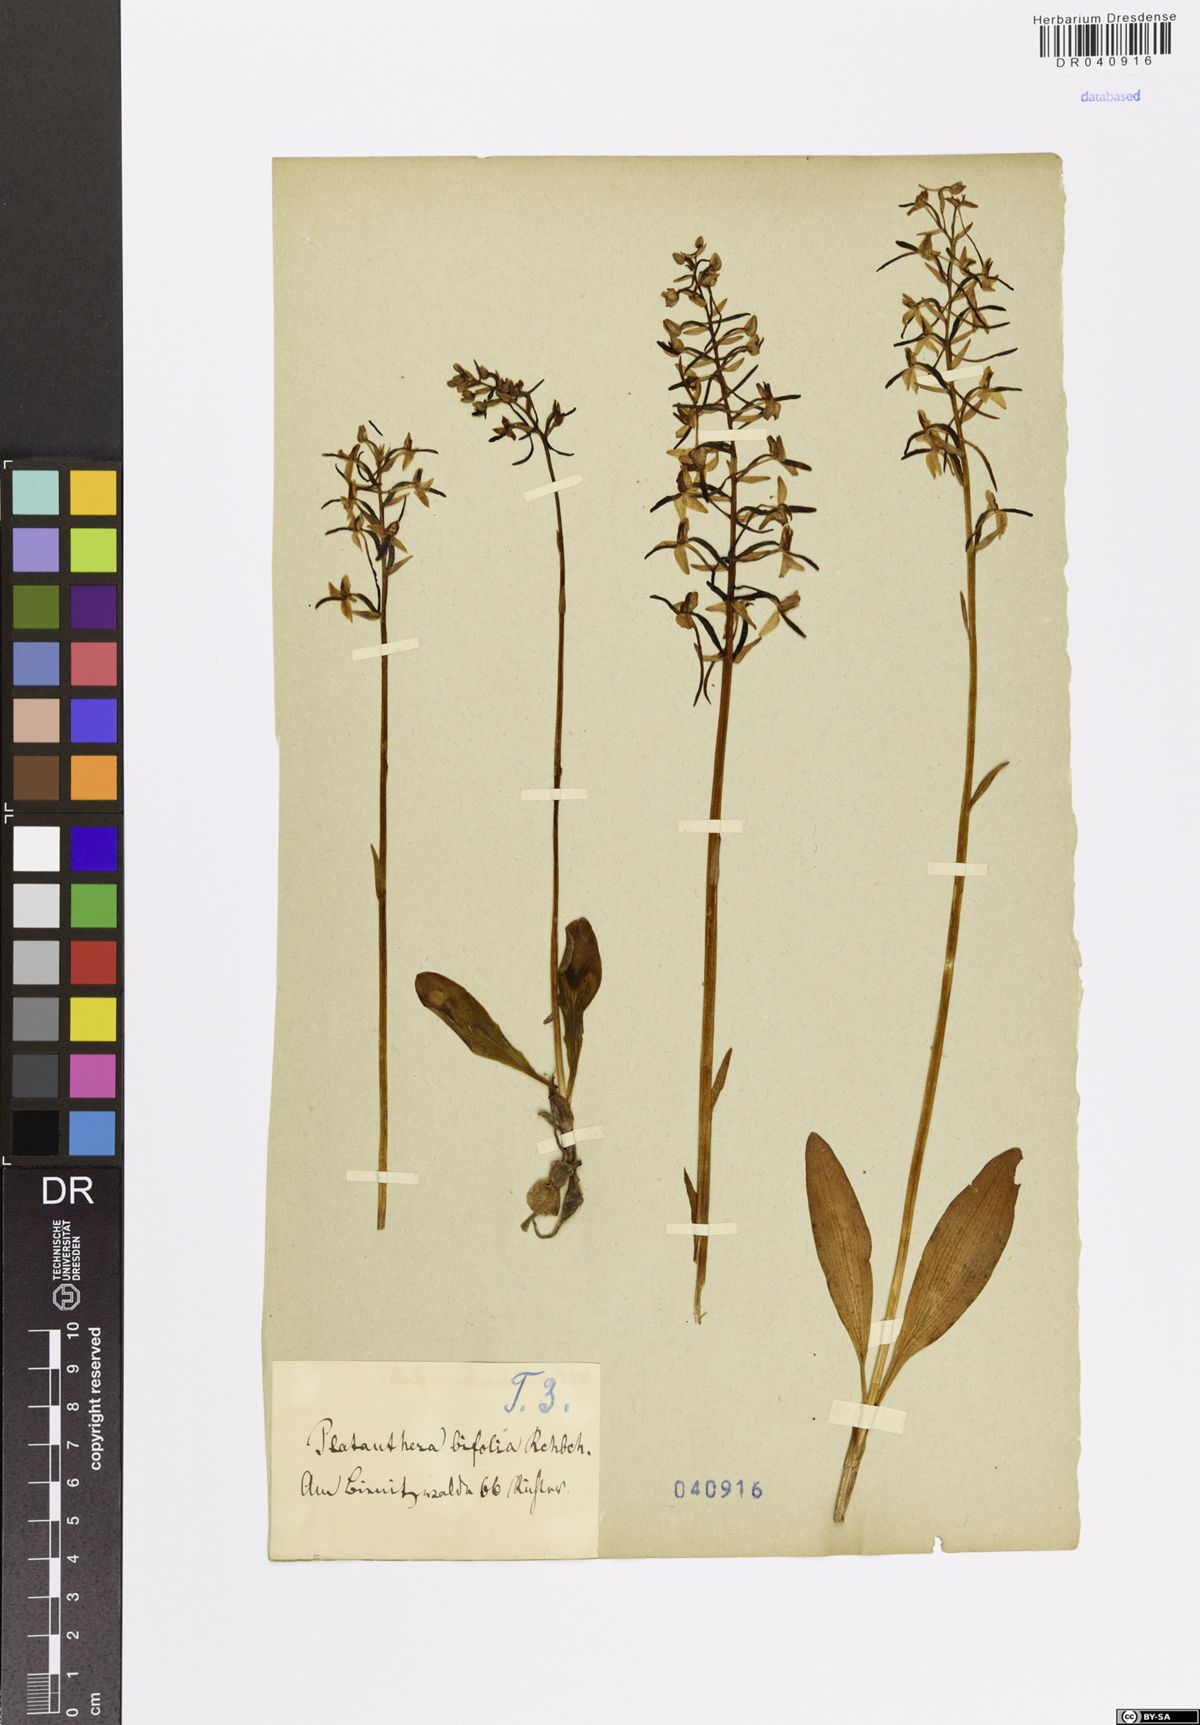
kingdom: Plantae
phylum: Tracheophyta
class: Liliopsida
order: Asparagales
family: Orchidaceae
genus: Platanthera
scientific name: Platanthera bifolia
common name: Lesser butterfly-orchid
